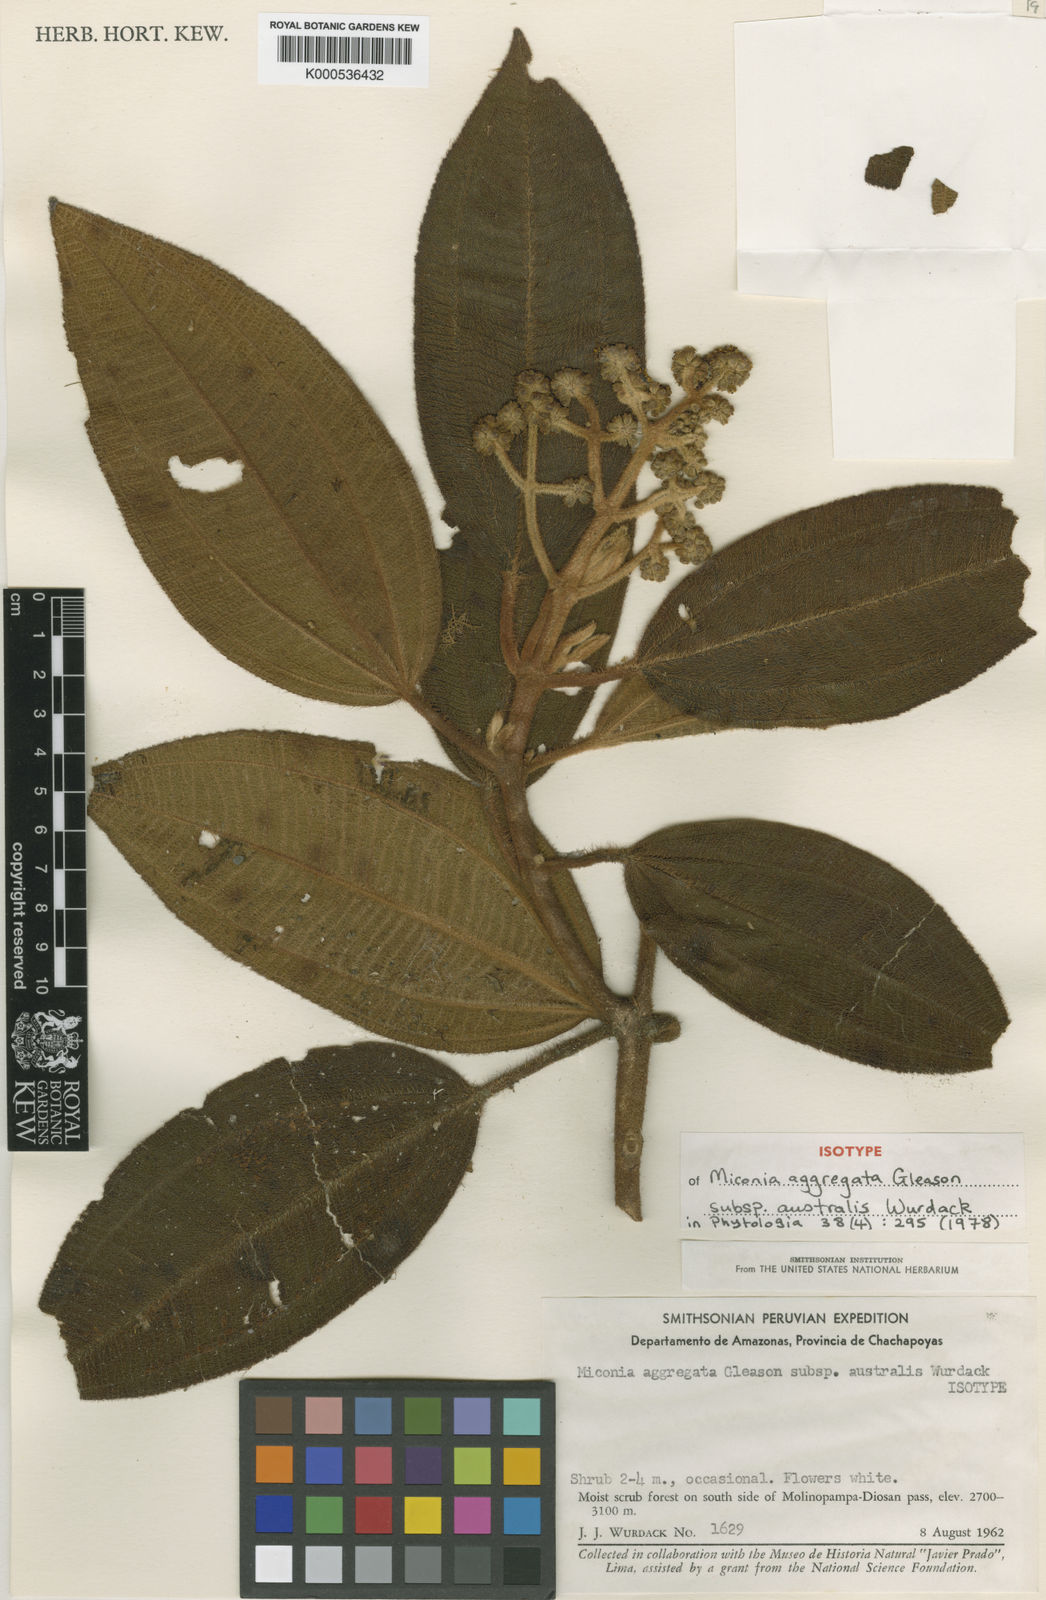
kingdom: Plantae
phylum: Tracheophyta
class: Magnoliopsida
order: Myrtales
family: Melastomataceae
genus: Miconia
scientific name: Miconia aggregata
